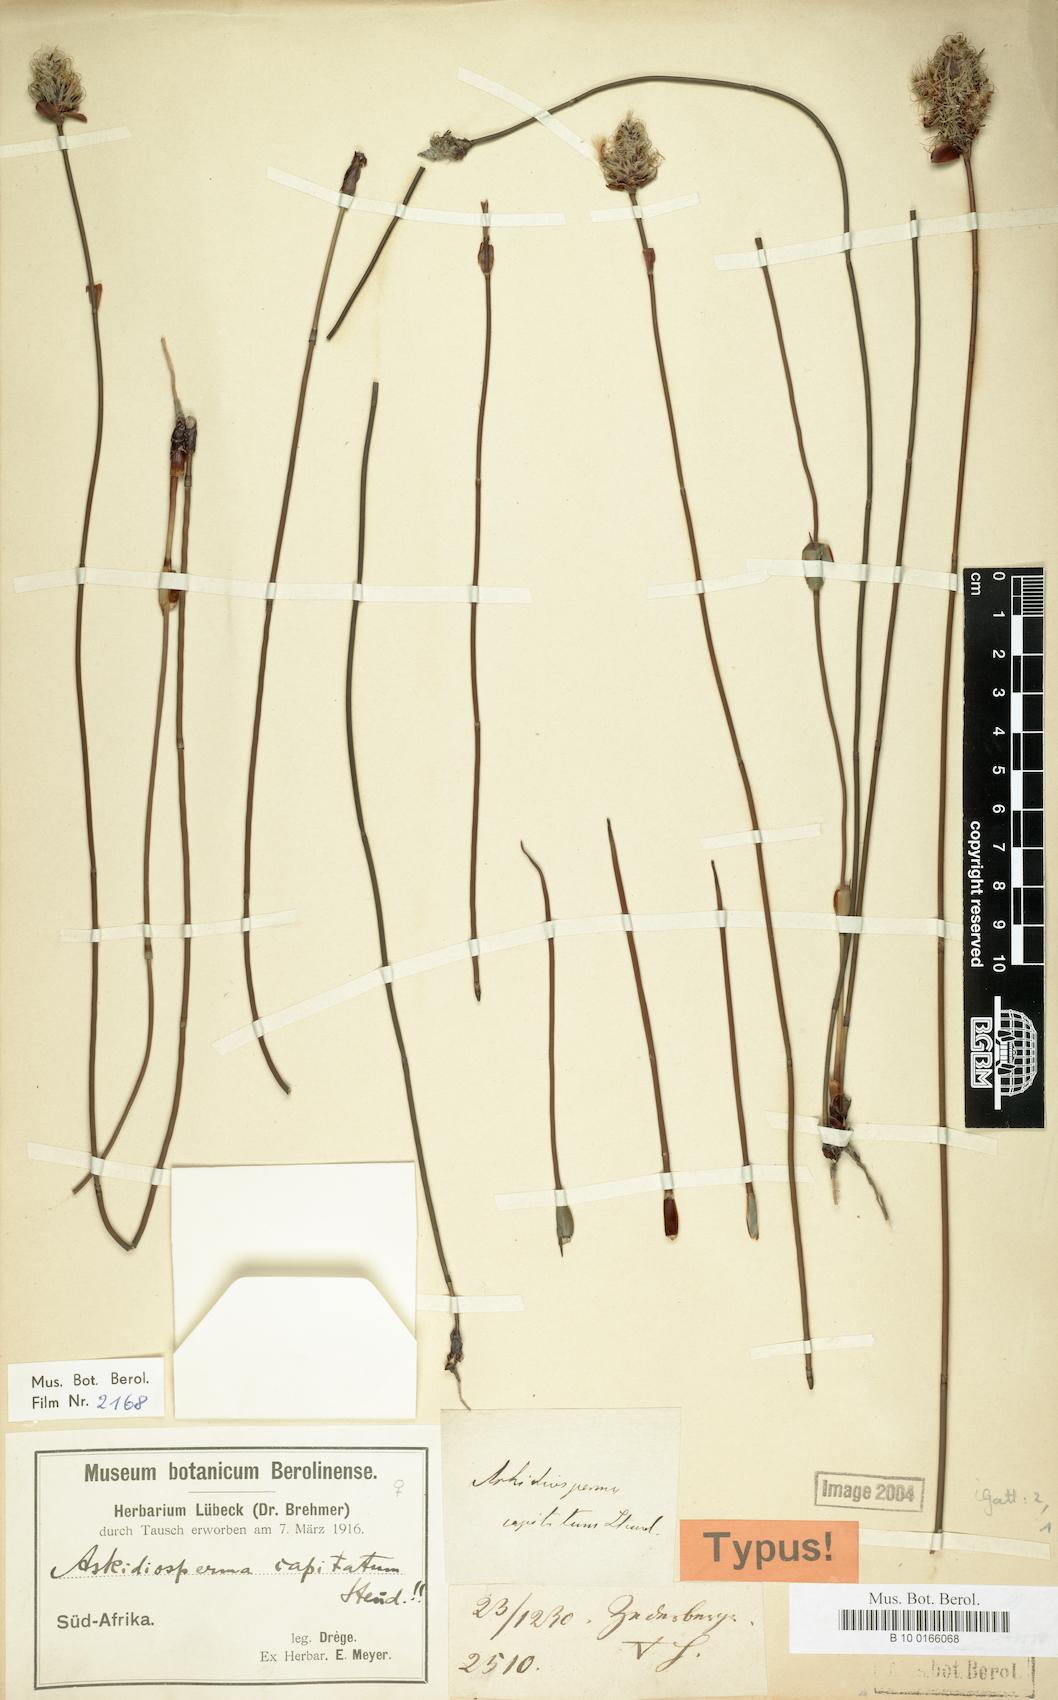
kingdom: Plantae
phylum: Tracheophyta
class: Liliopsida
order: Poales
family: Restionaceae
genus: Askidiosperma
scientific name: Askidiosperma capitatum
